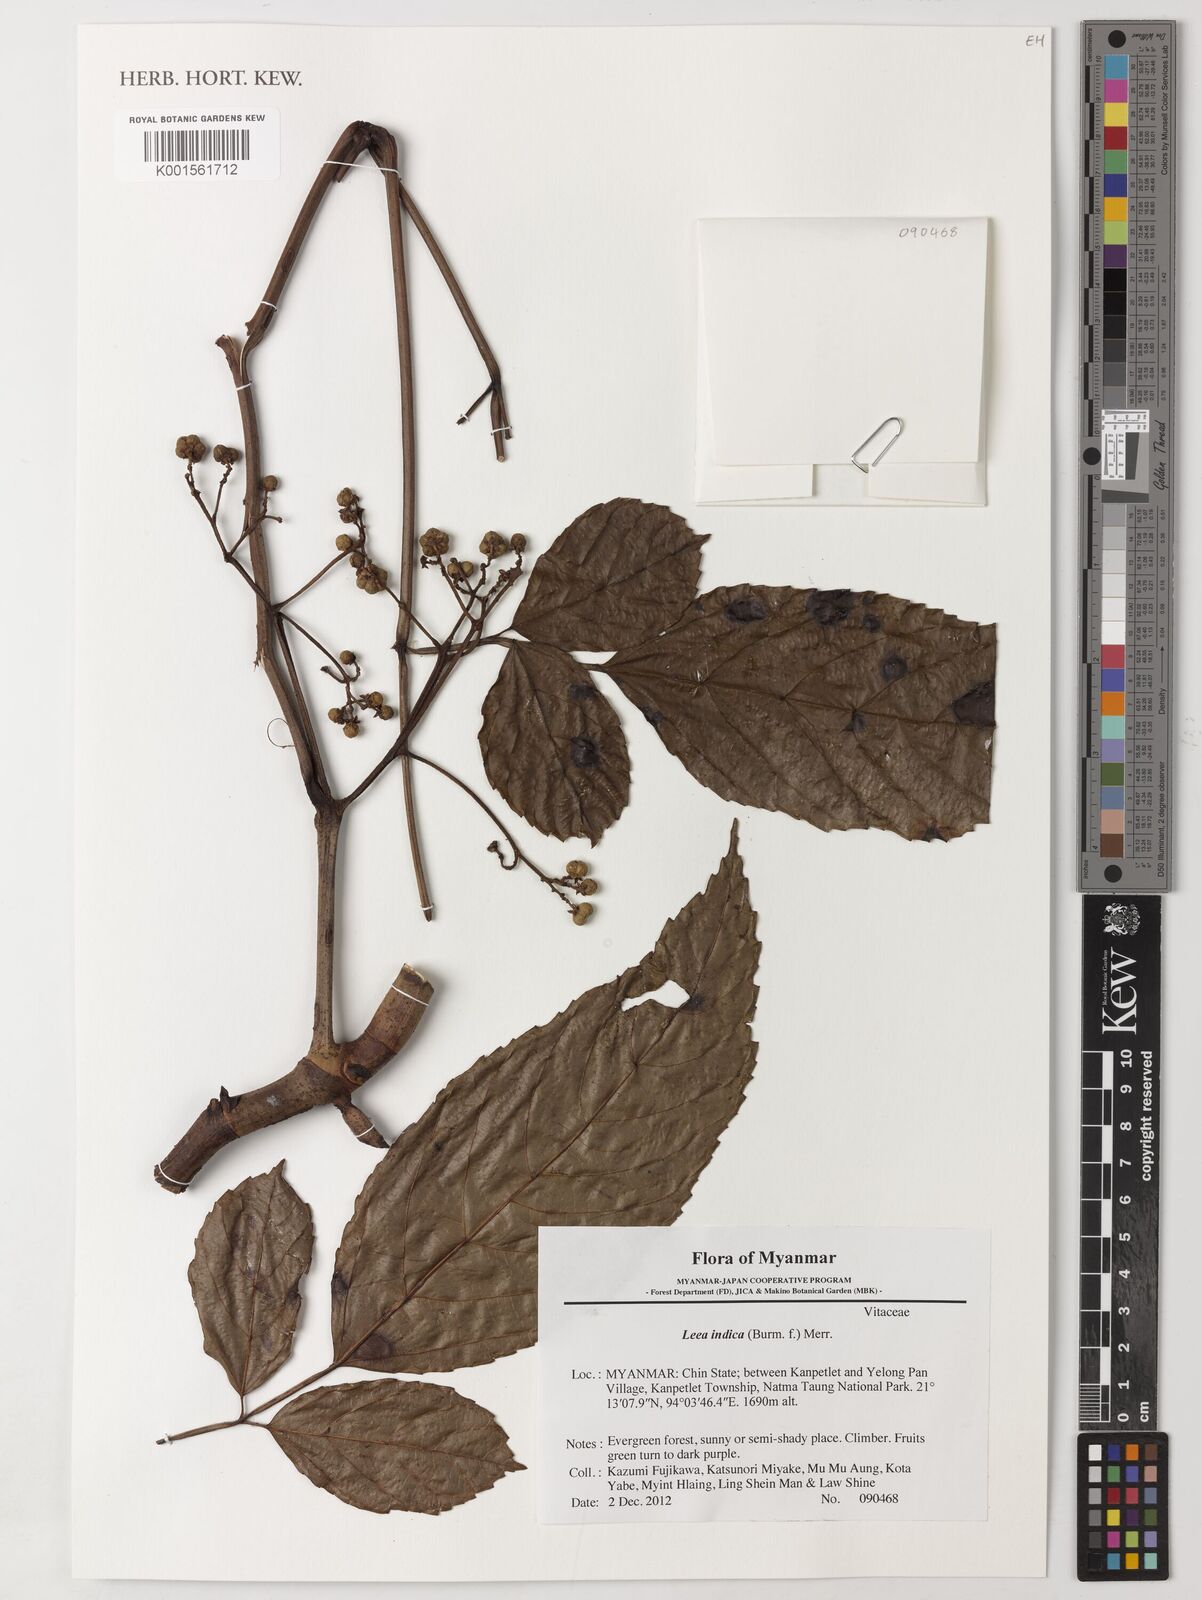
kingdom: Plantae
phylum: Tracheophyta
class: Magnoliopsida
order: Vitales
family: Vitaceae
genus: Leea
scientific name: Leea indica
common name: Bandicoot-berry
